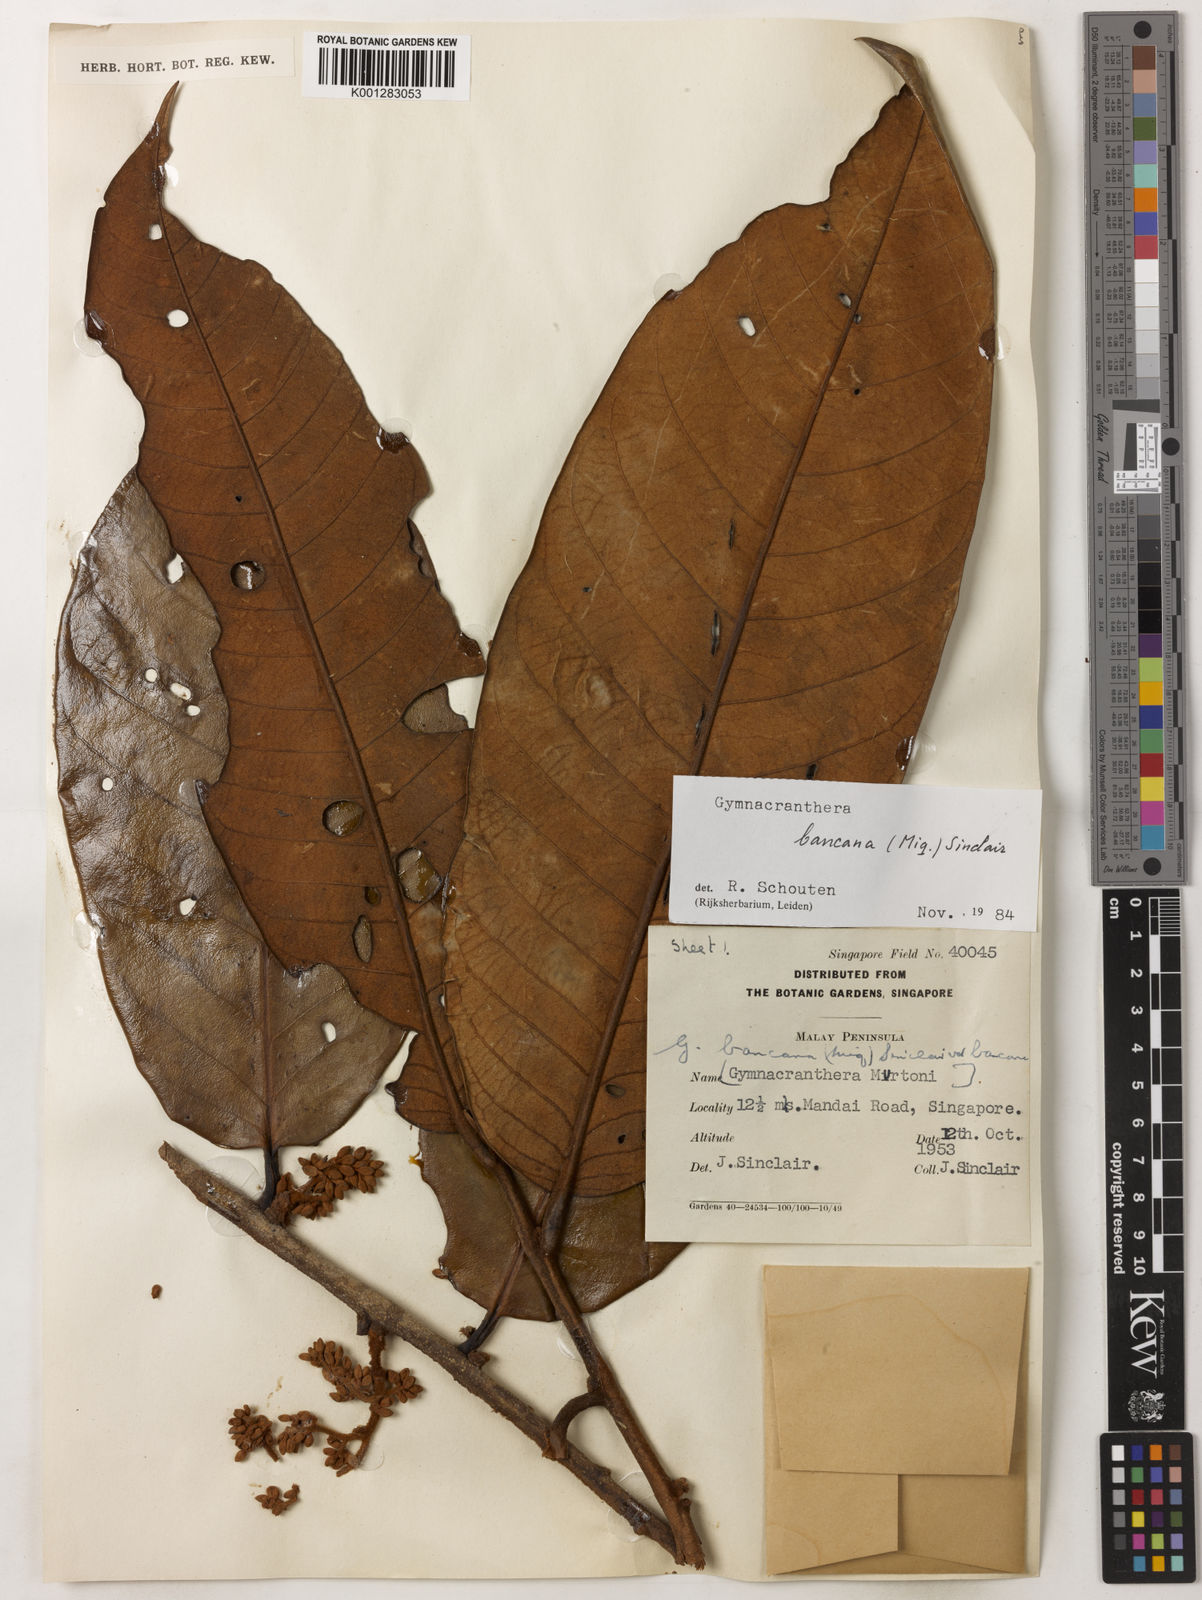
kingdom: Plantae
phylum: Tracheophyta
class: Magnoliopsida
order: Magnoliales
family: Myristicaceae
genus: Gymnacranthera
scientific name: Gymnacranthera bancana
